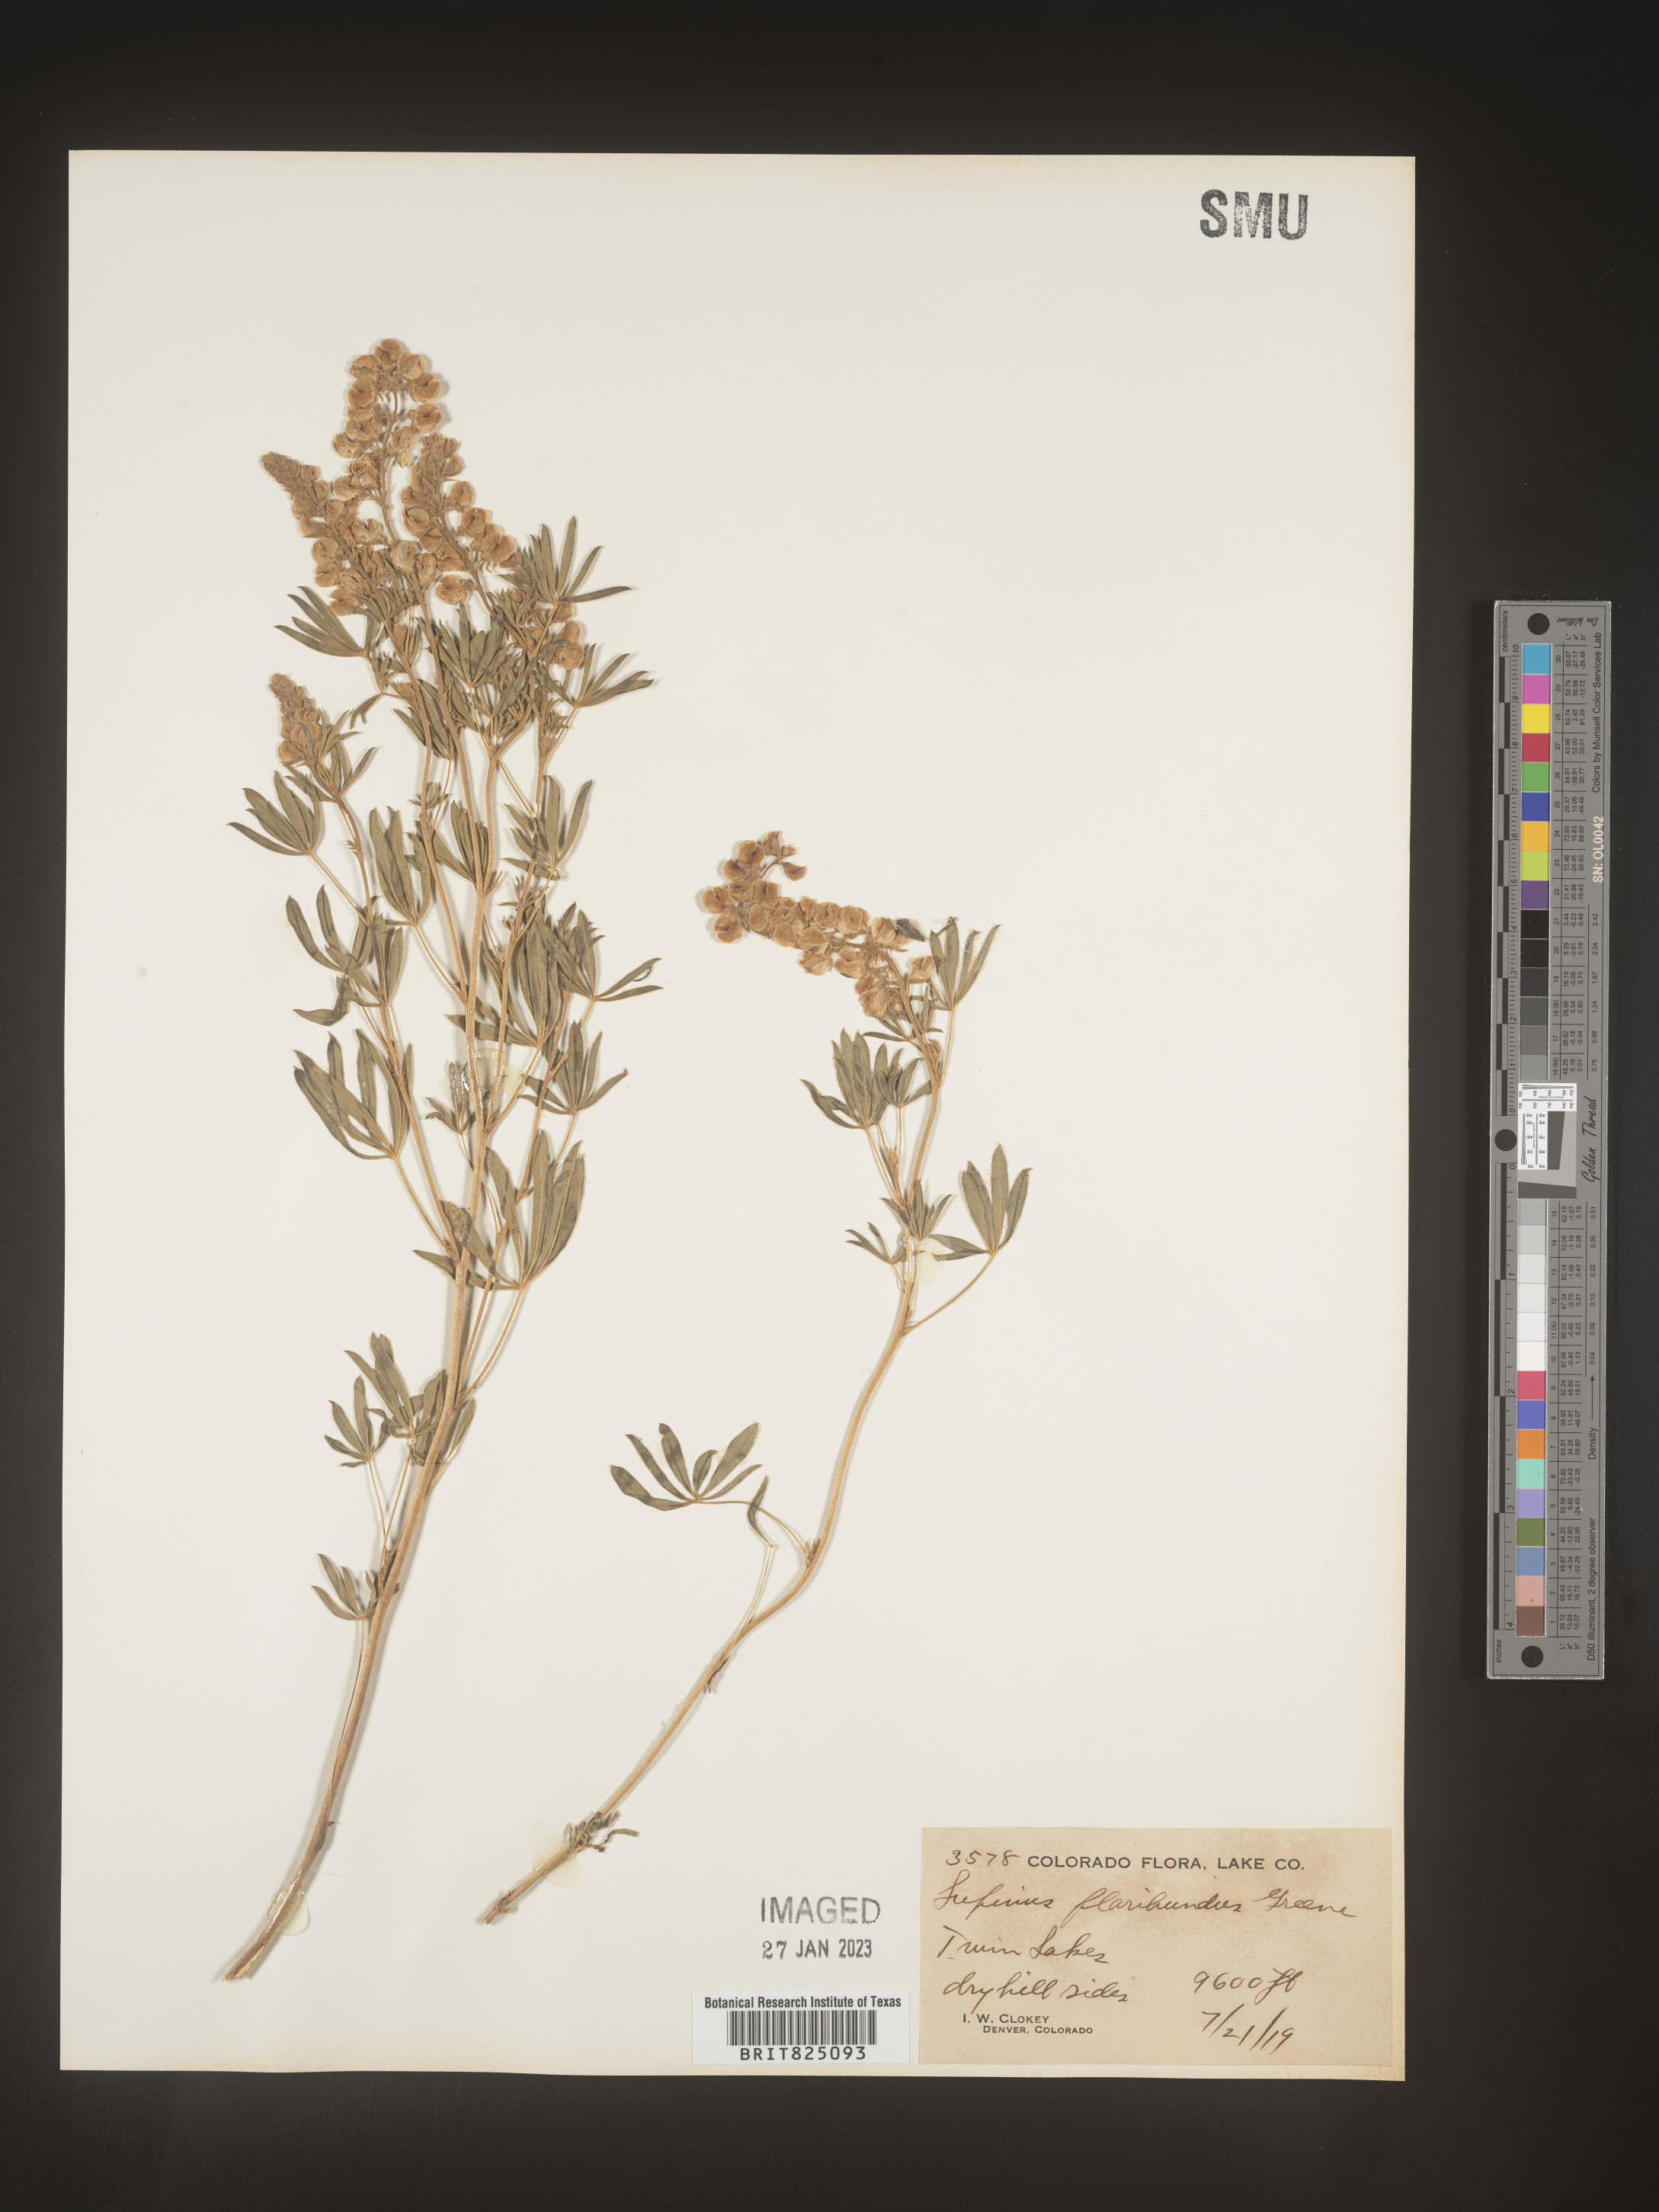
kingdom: Plantae
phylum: Tracheophyta
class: Magnoliopsida
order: Fabales
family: Fabaceae
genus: Lupinus
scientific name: Lupinus
